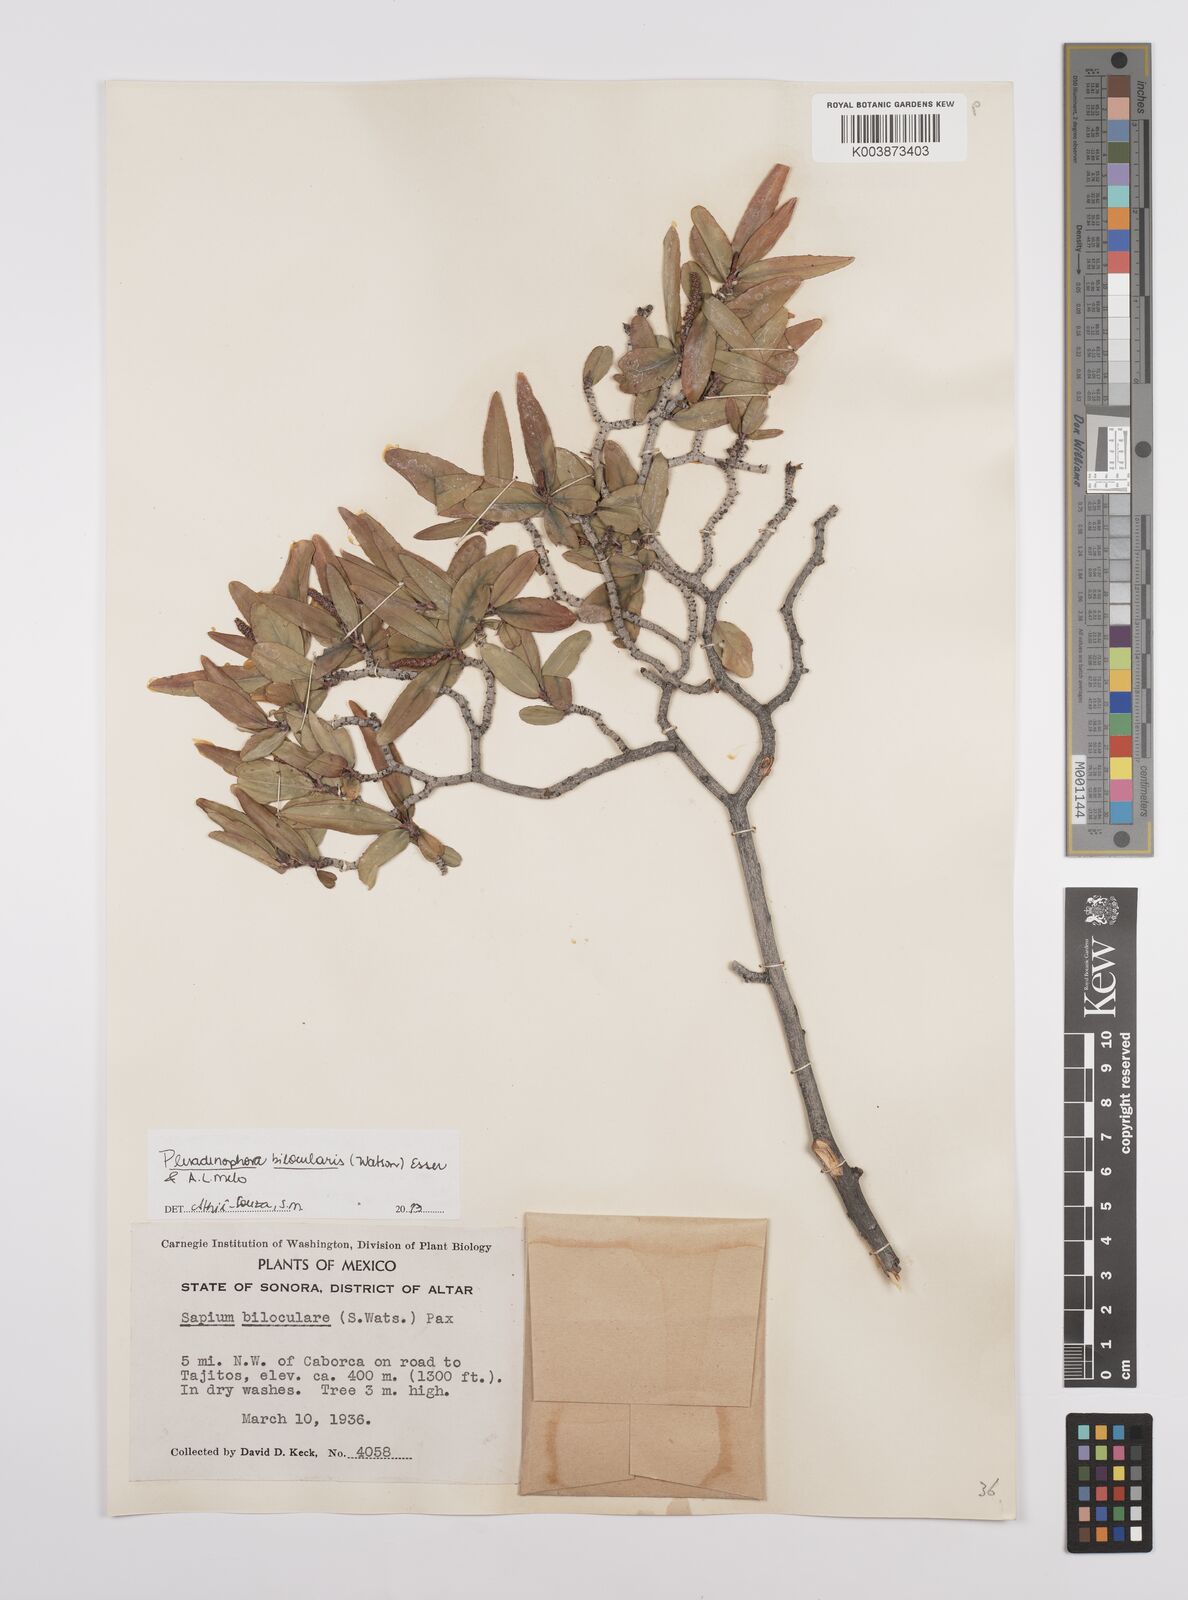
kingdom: Plantae
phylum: Tracheophyta
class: Magnoliopsida
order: Malpighiales
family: Euphorbiaceae
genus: Pleradenophora
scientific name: Pleradenophora bilocularis
